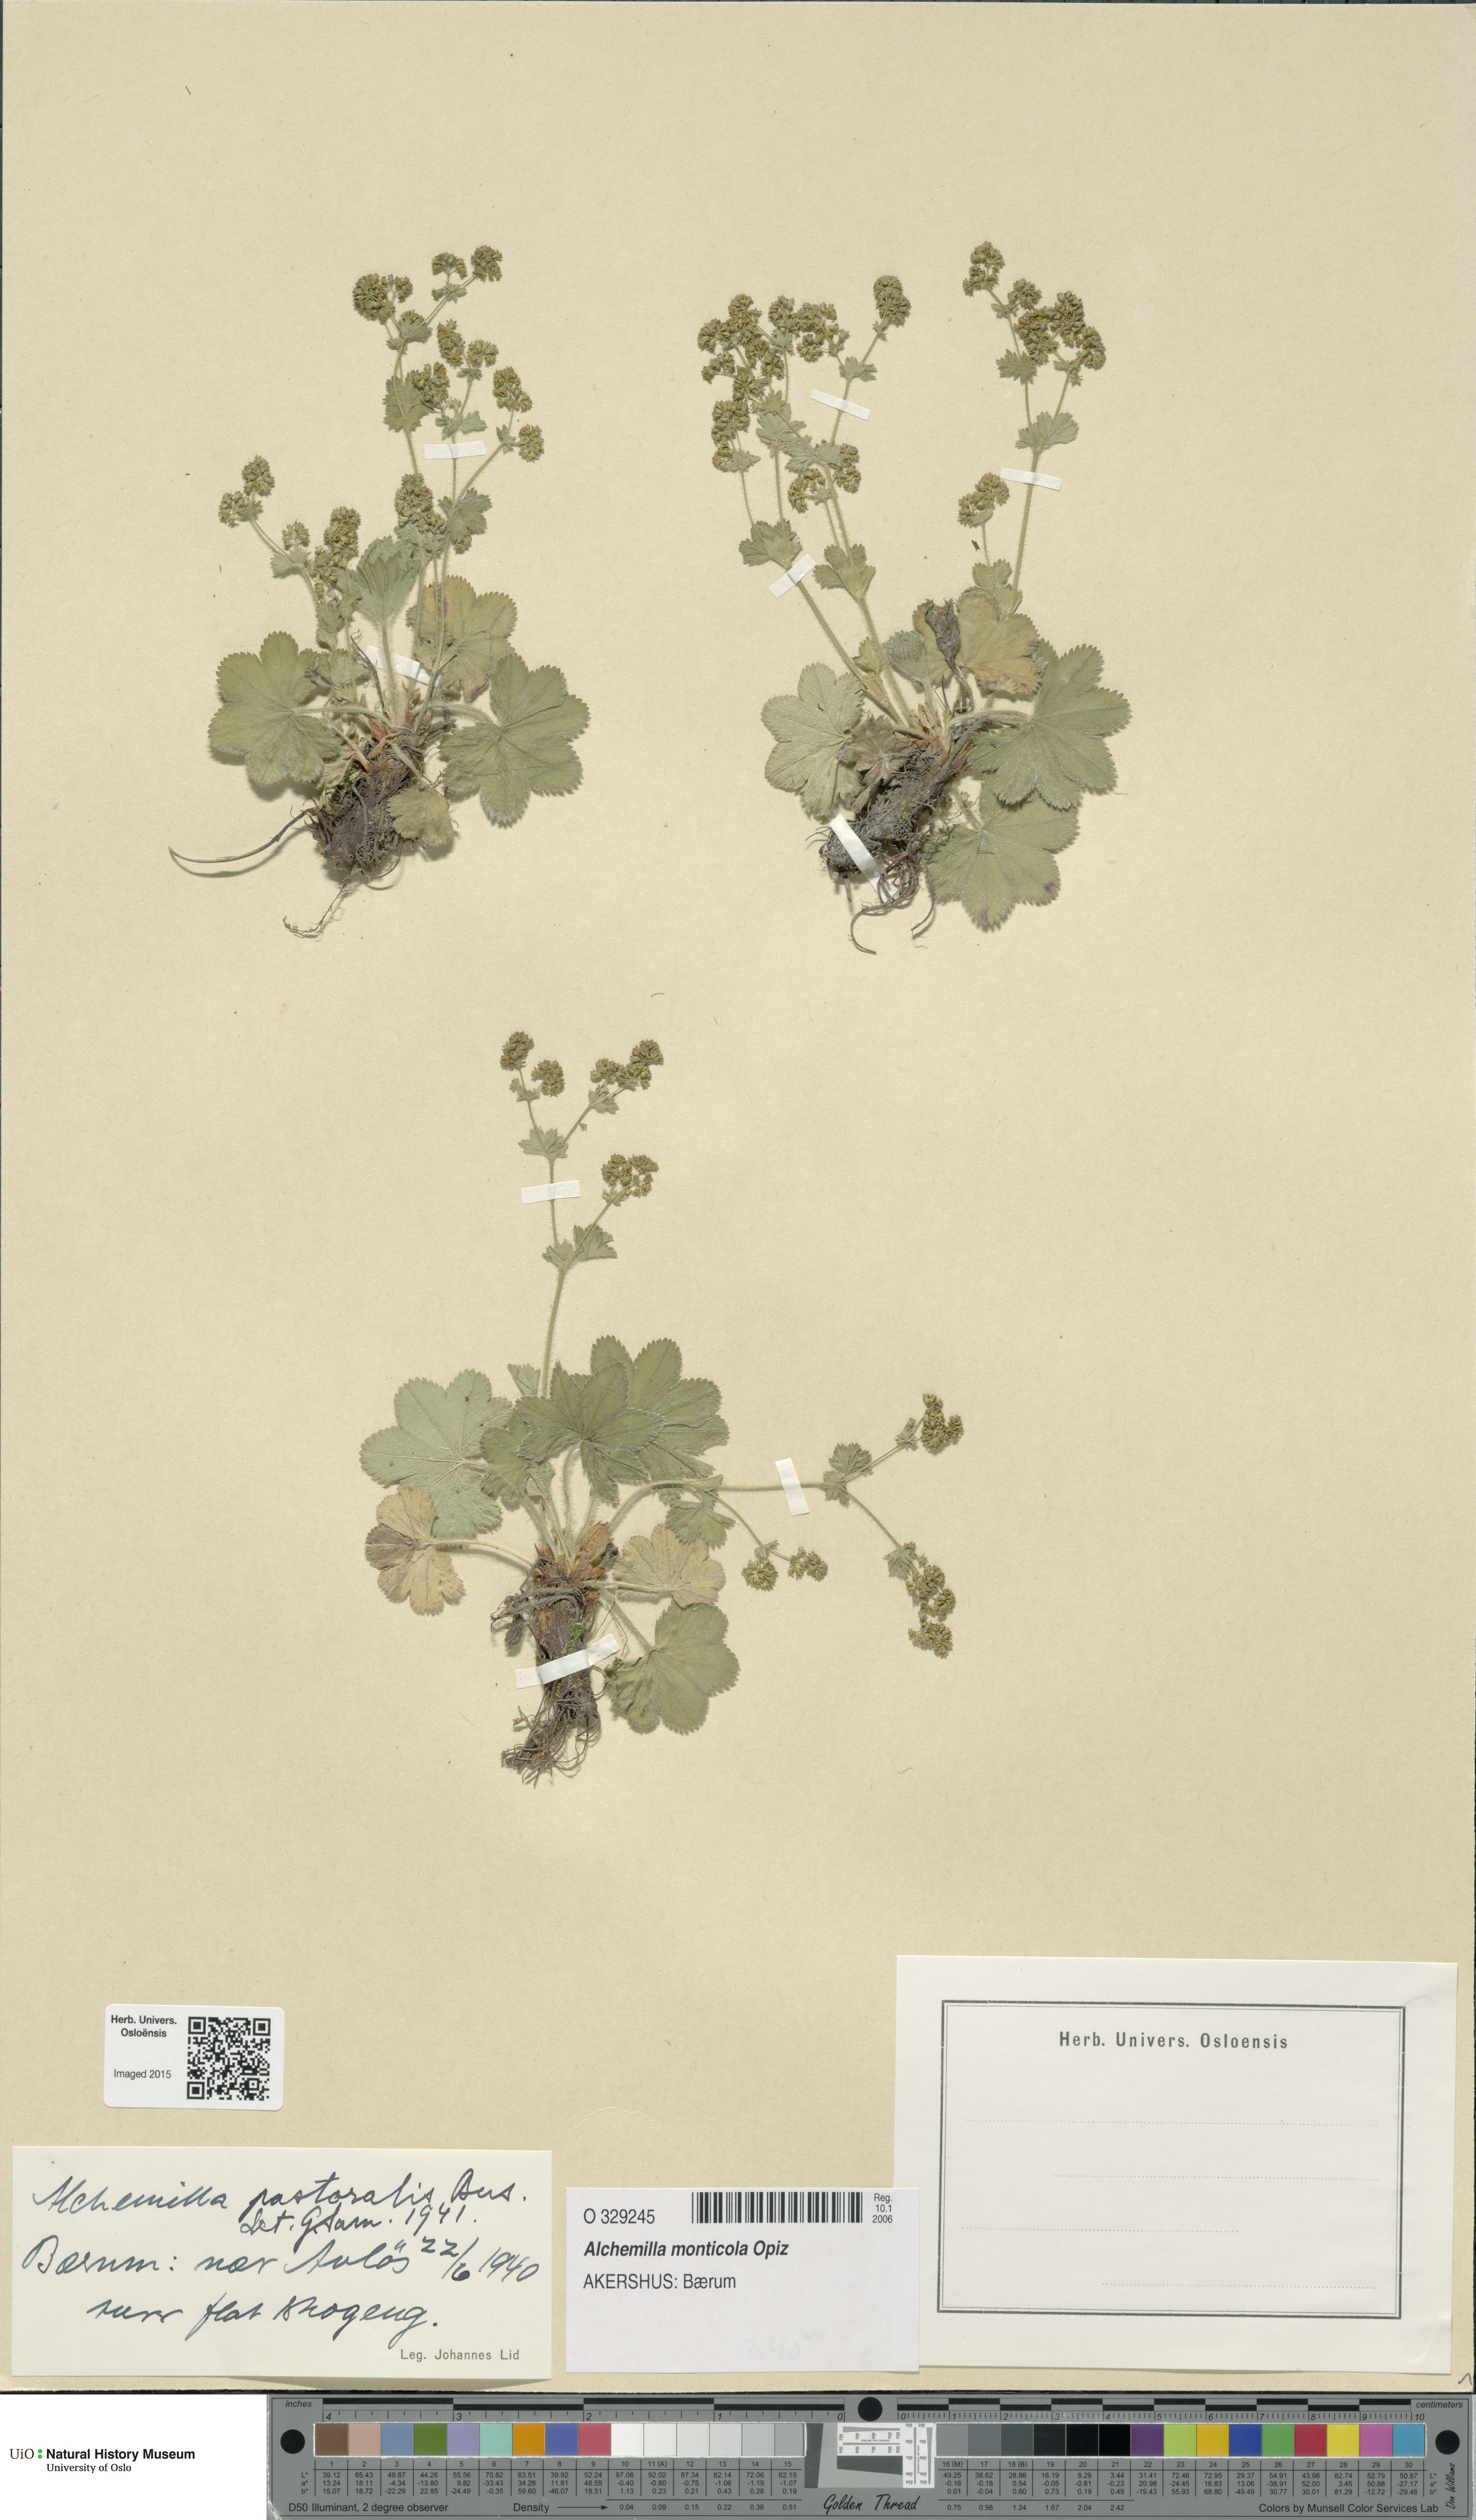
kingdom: Plantae
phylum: Tracheophyta
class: Magnoliopsida
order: Rosales
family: Rosaceae
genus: Alchemilla
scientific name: Alchemilla monticola
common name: Hairy lady's mantle
